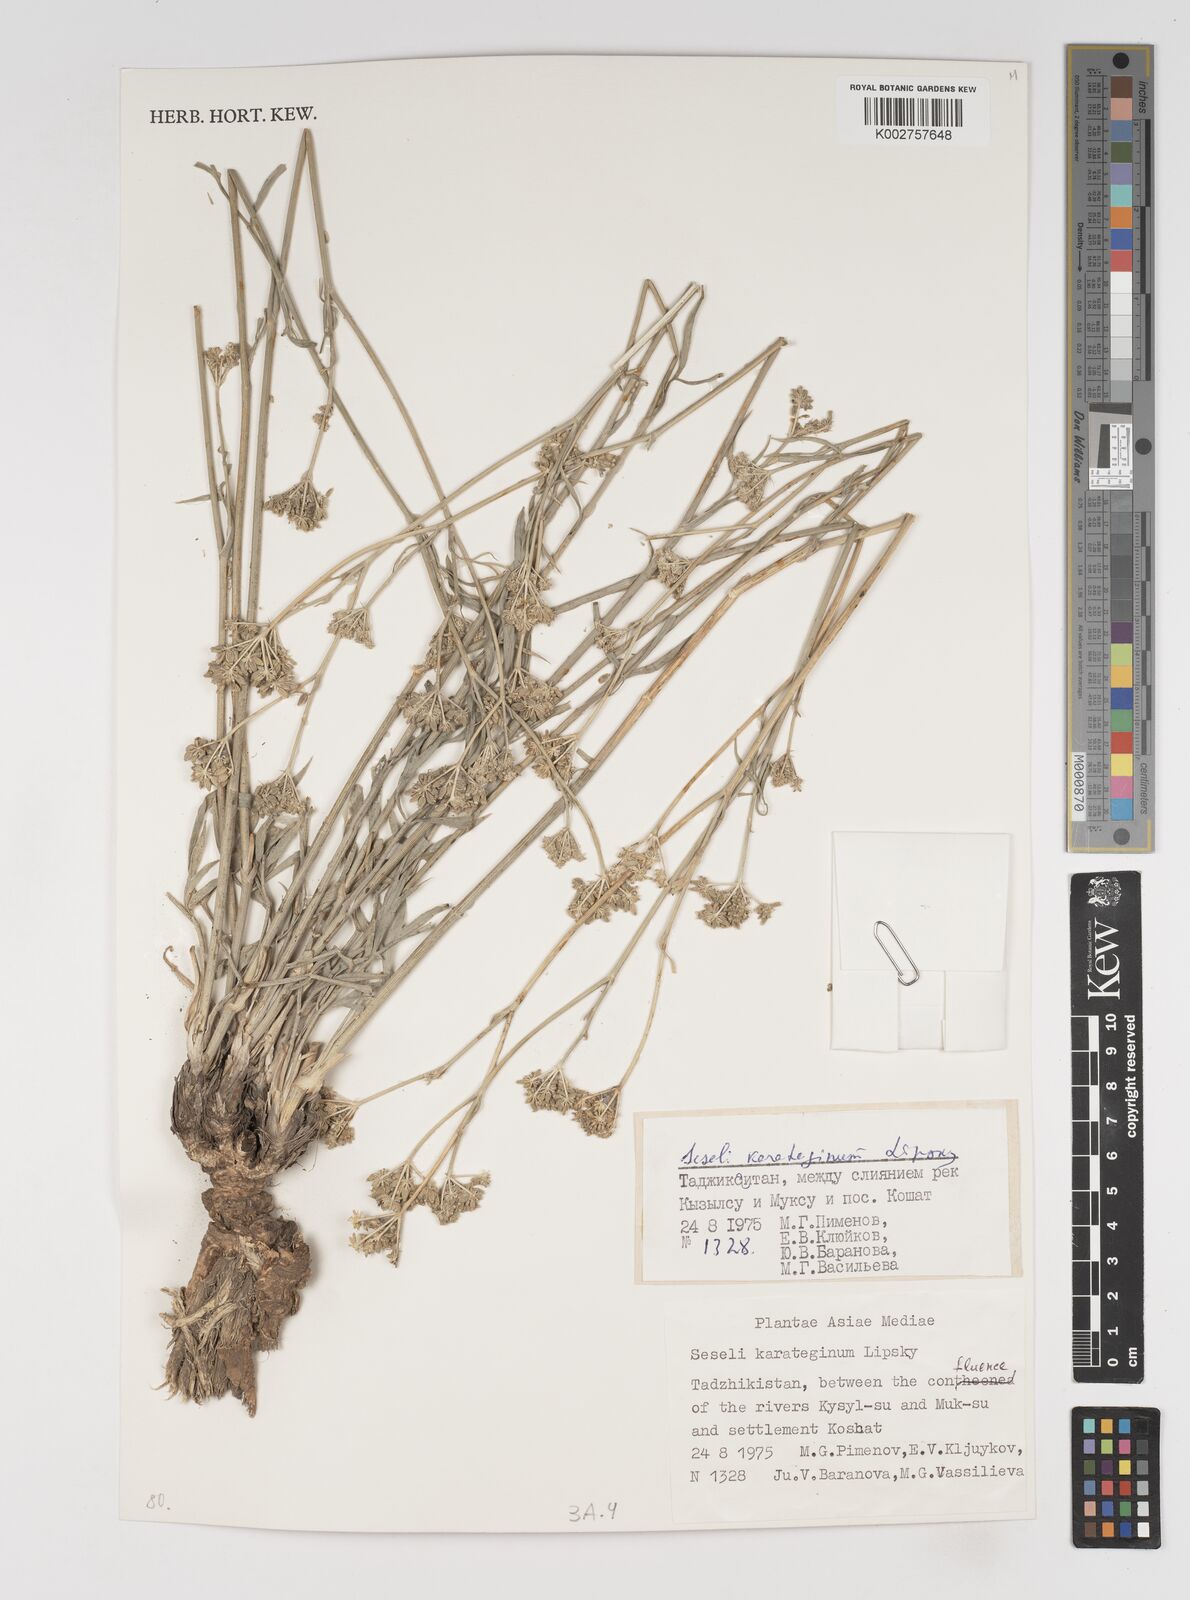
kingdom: Plantae
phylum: Tracheophyta
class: Magnoliopsida
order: Apiales
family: Apiaceae
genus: Seseli
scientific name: Seseli karateginum
